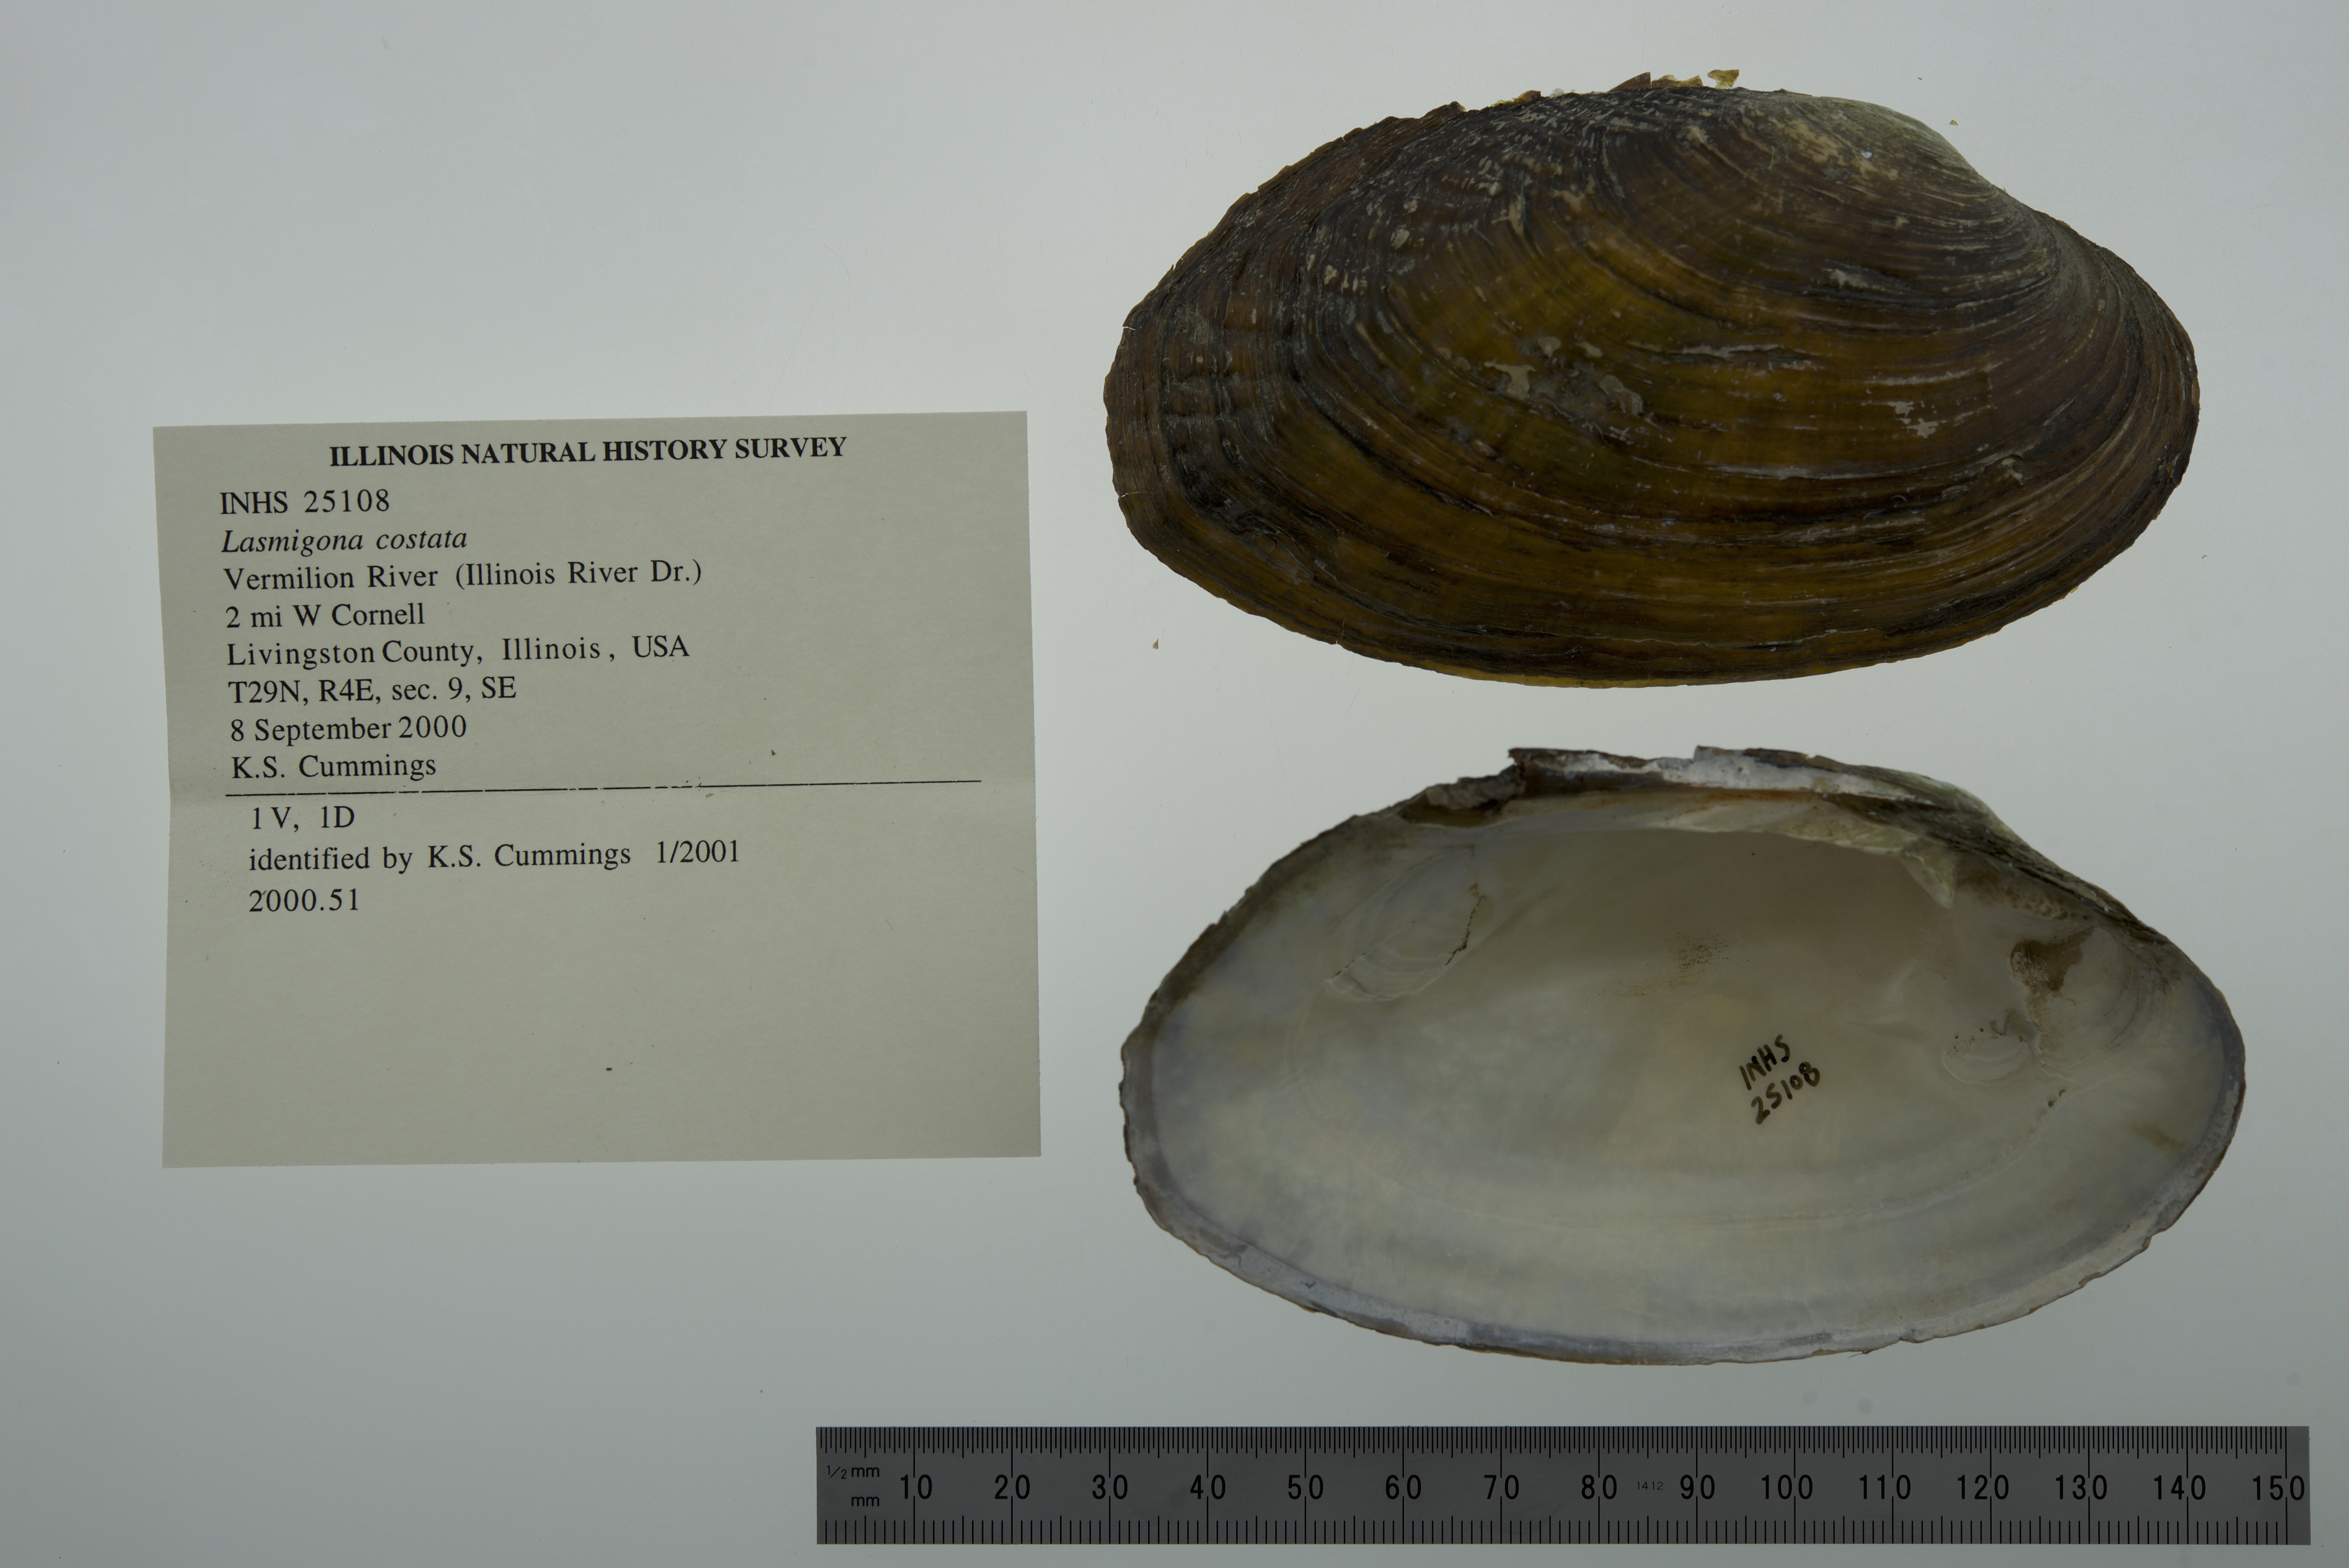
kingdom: Animalia
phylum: Mollusca
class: Bivalvia
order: Unionida
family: Unionidae
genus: Lasmigona
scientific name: Lasmigona costata
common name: Flutedshell
